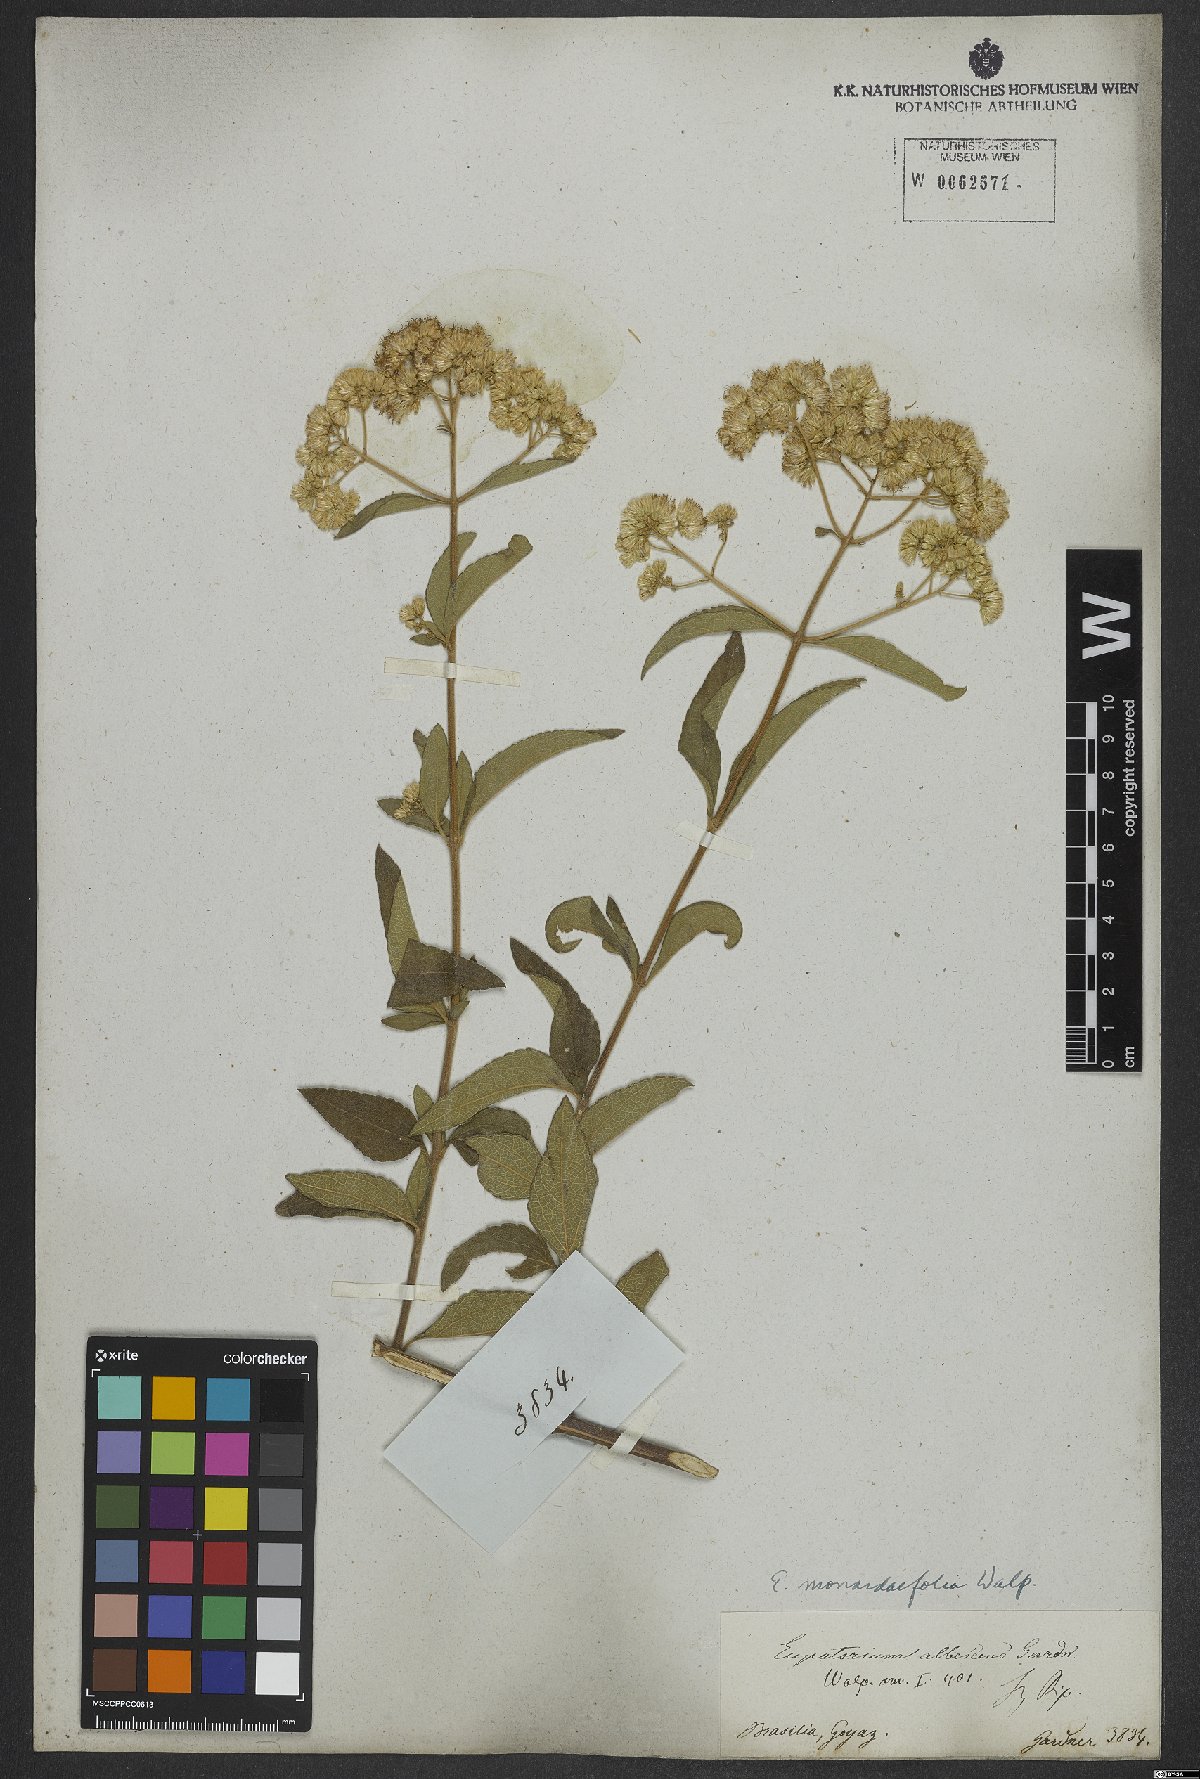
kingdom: Plantae
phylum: Tracheophyta
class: Magnoliopsida
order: Asterales
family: Asteraceae
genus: Austroeupatorium
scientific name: Austroeupatorium silphiifolium
